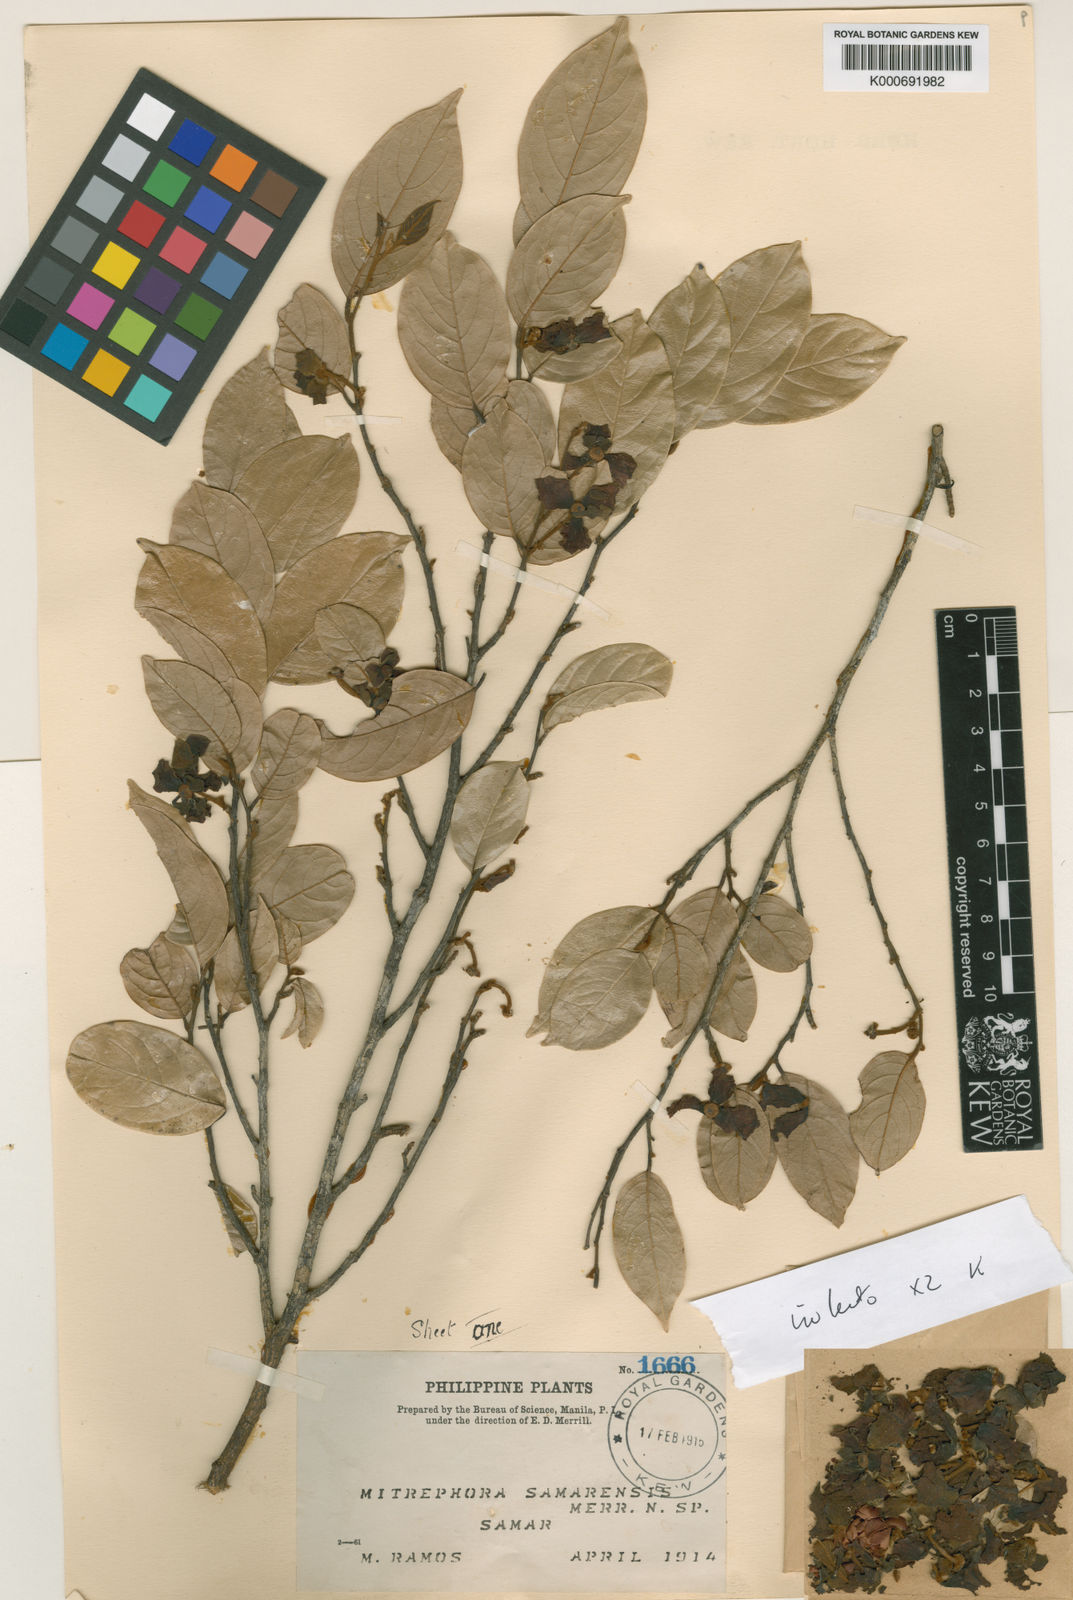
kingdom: Plantae
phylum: Tracheophyta
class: Magnoliopsida
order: Magnoliales
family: Annonaceae
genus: Mitrephora
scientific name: Mitrephora samarensis
